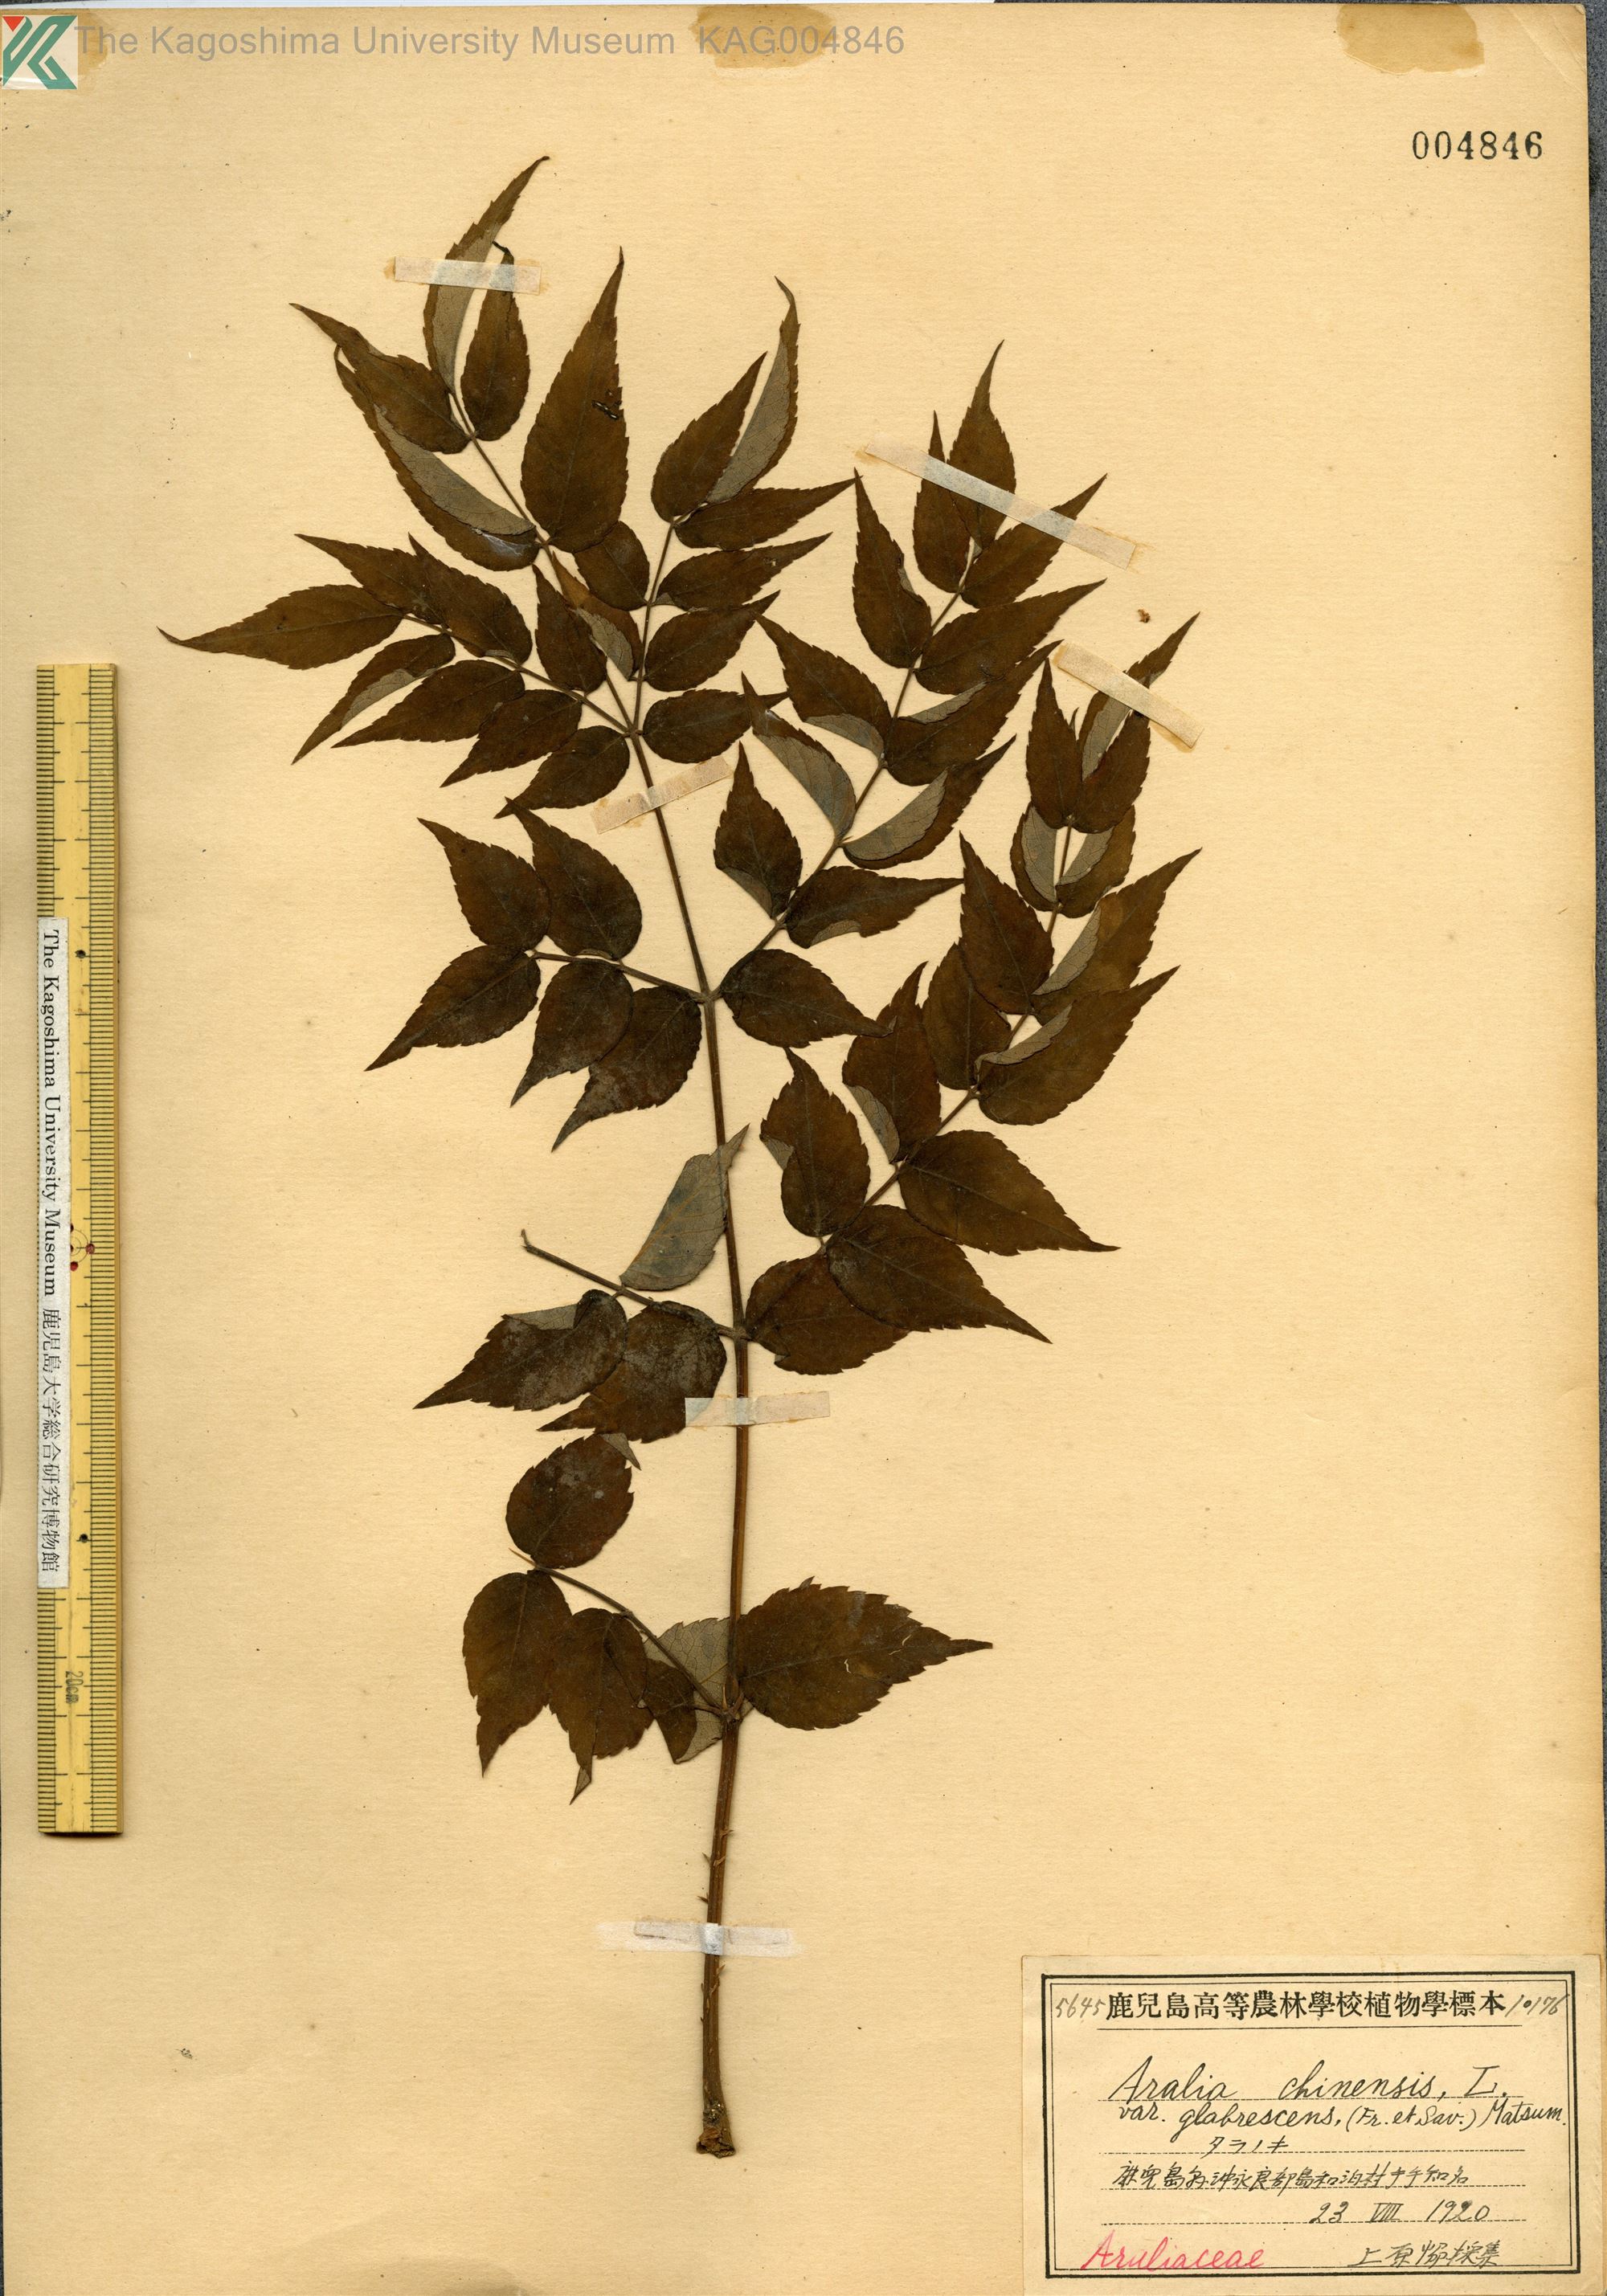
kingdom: Plantae
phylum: Tracheophyta
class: Magnoliopsida
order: Apiales
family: Araliaceae
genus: Aralia
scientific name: Aralia elata
